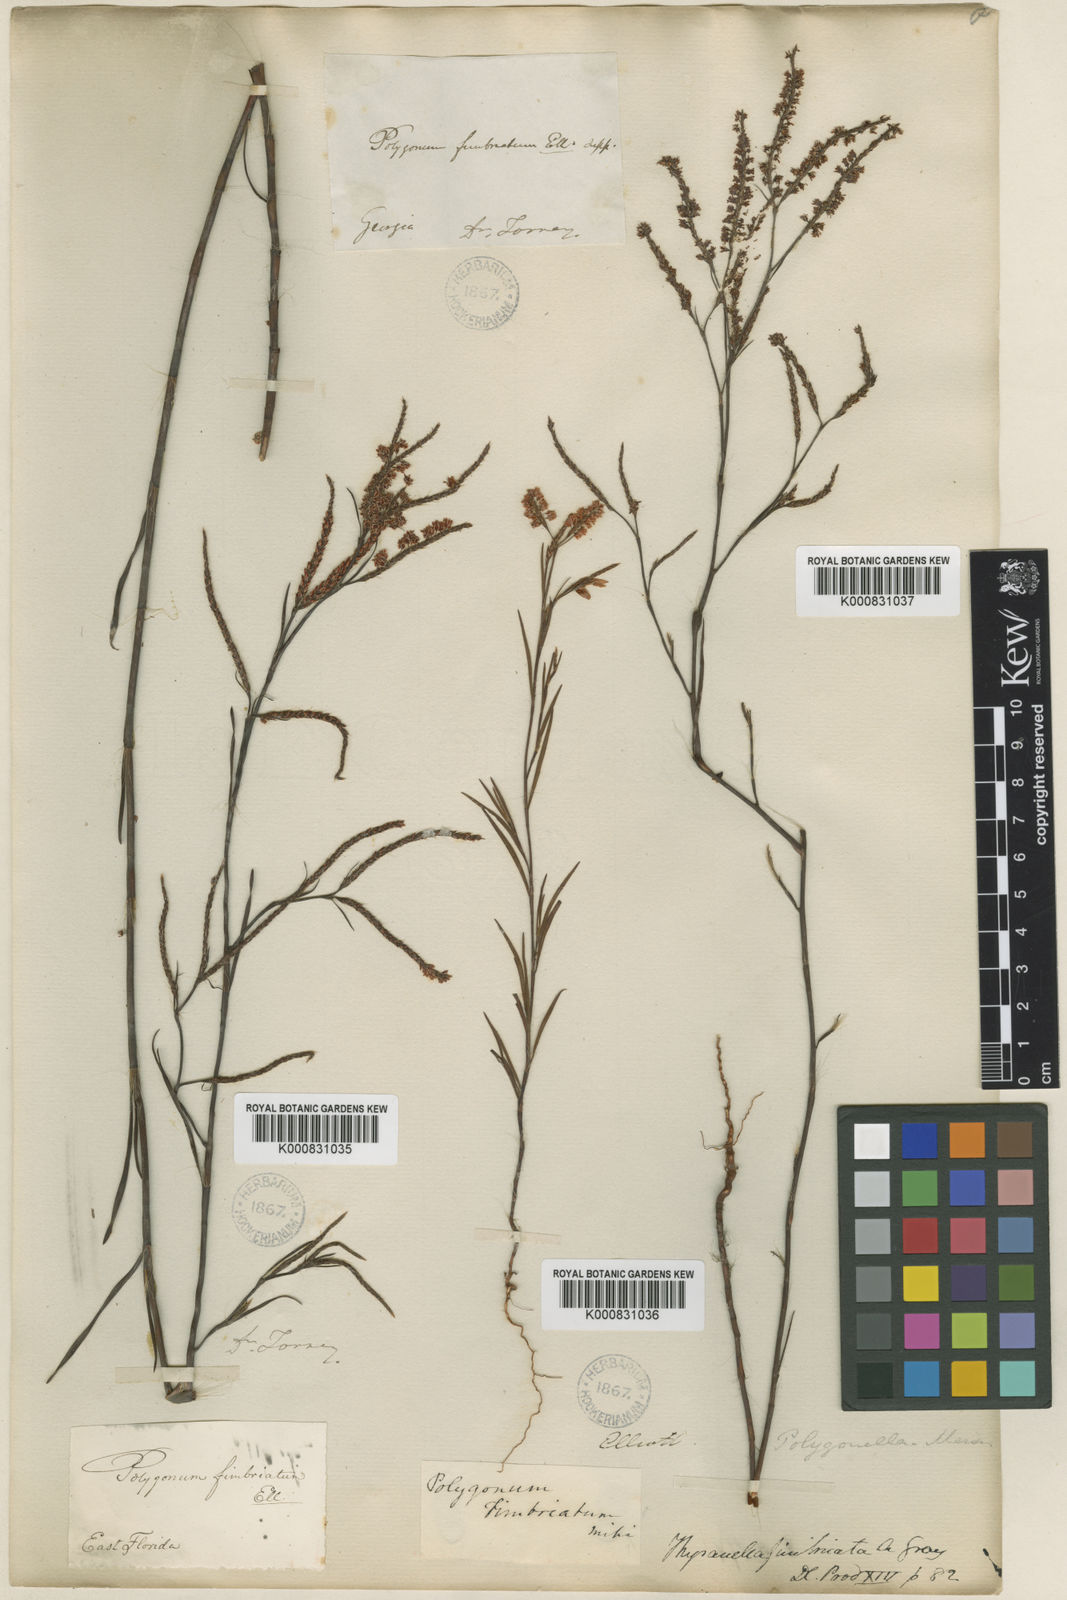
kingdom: Plantae
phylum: Tracheophyta
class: Magnoliopsida
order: Caryophyllales
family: Polygonaceae
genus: Polygonella
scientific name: Polygonella fimbriata
